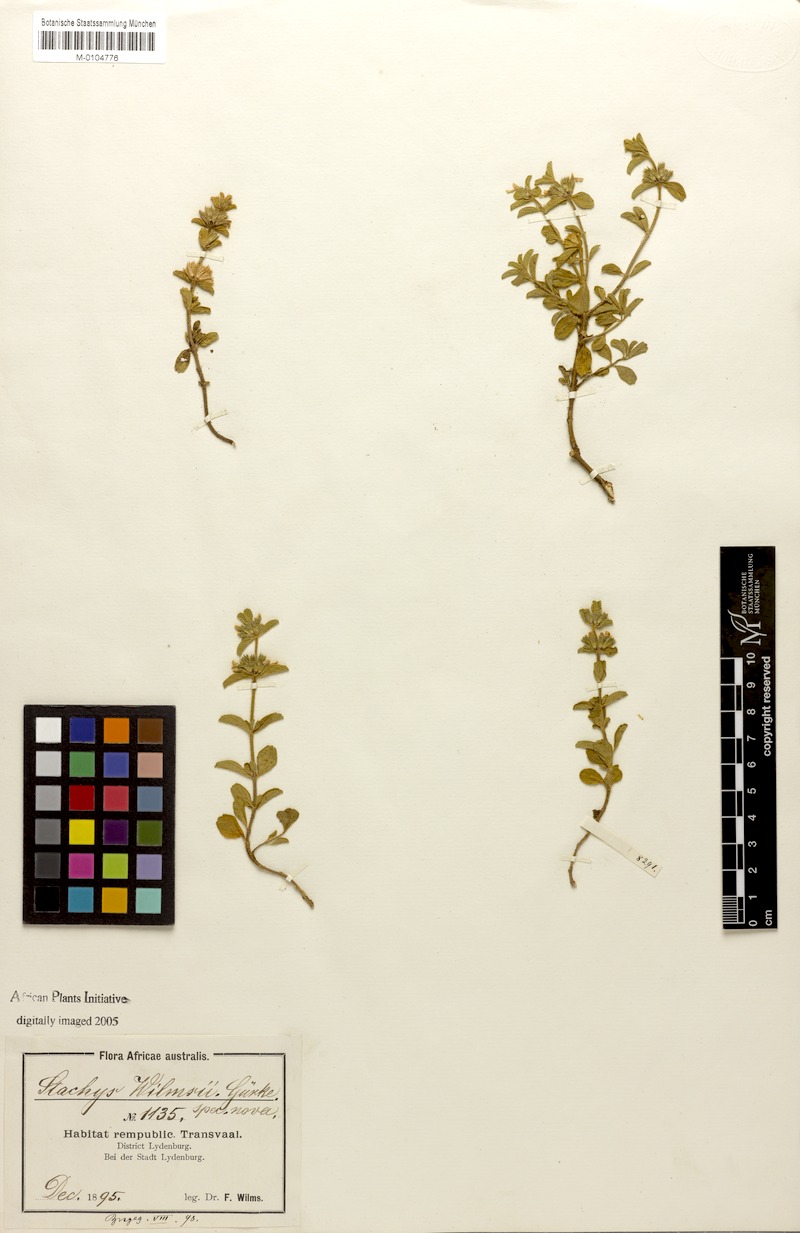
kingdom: Plantae
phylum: Tracheophyta
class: Magnoliopsida
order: Lamiales
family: Lamiaceae
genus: Stachys
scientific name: Stachys
